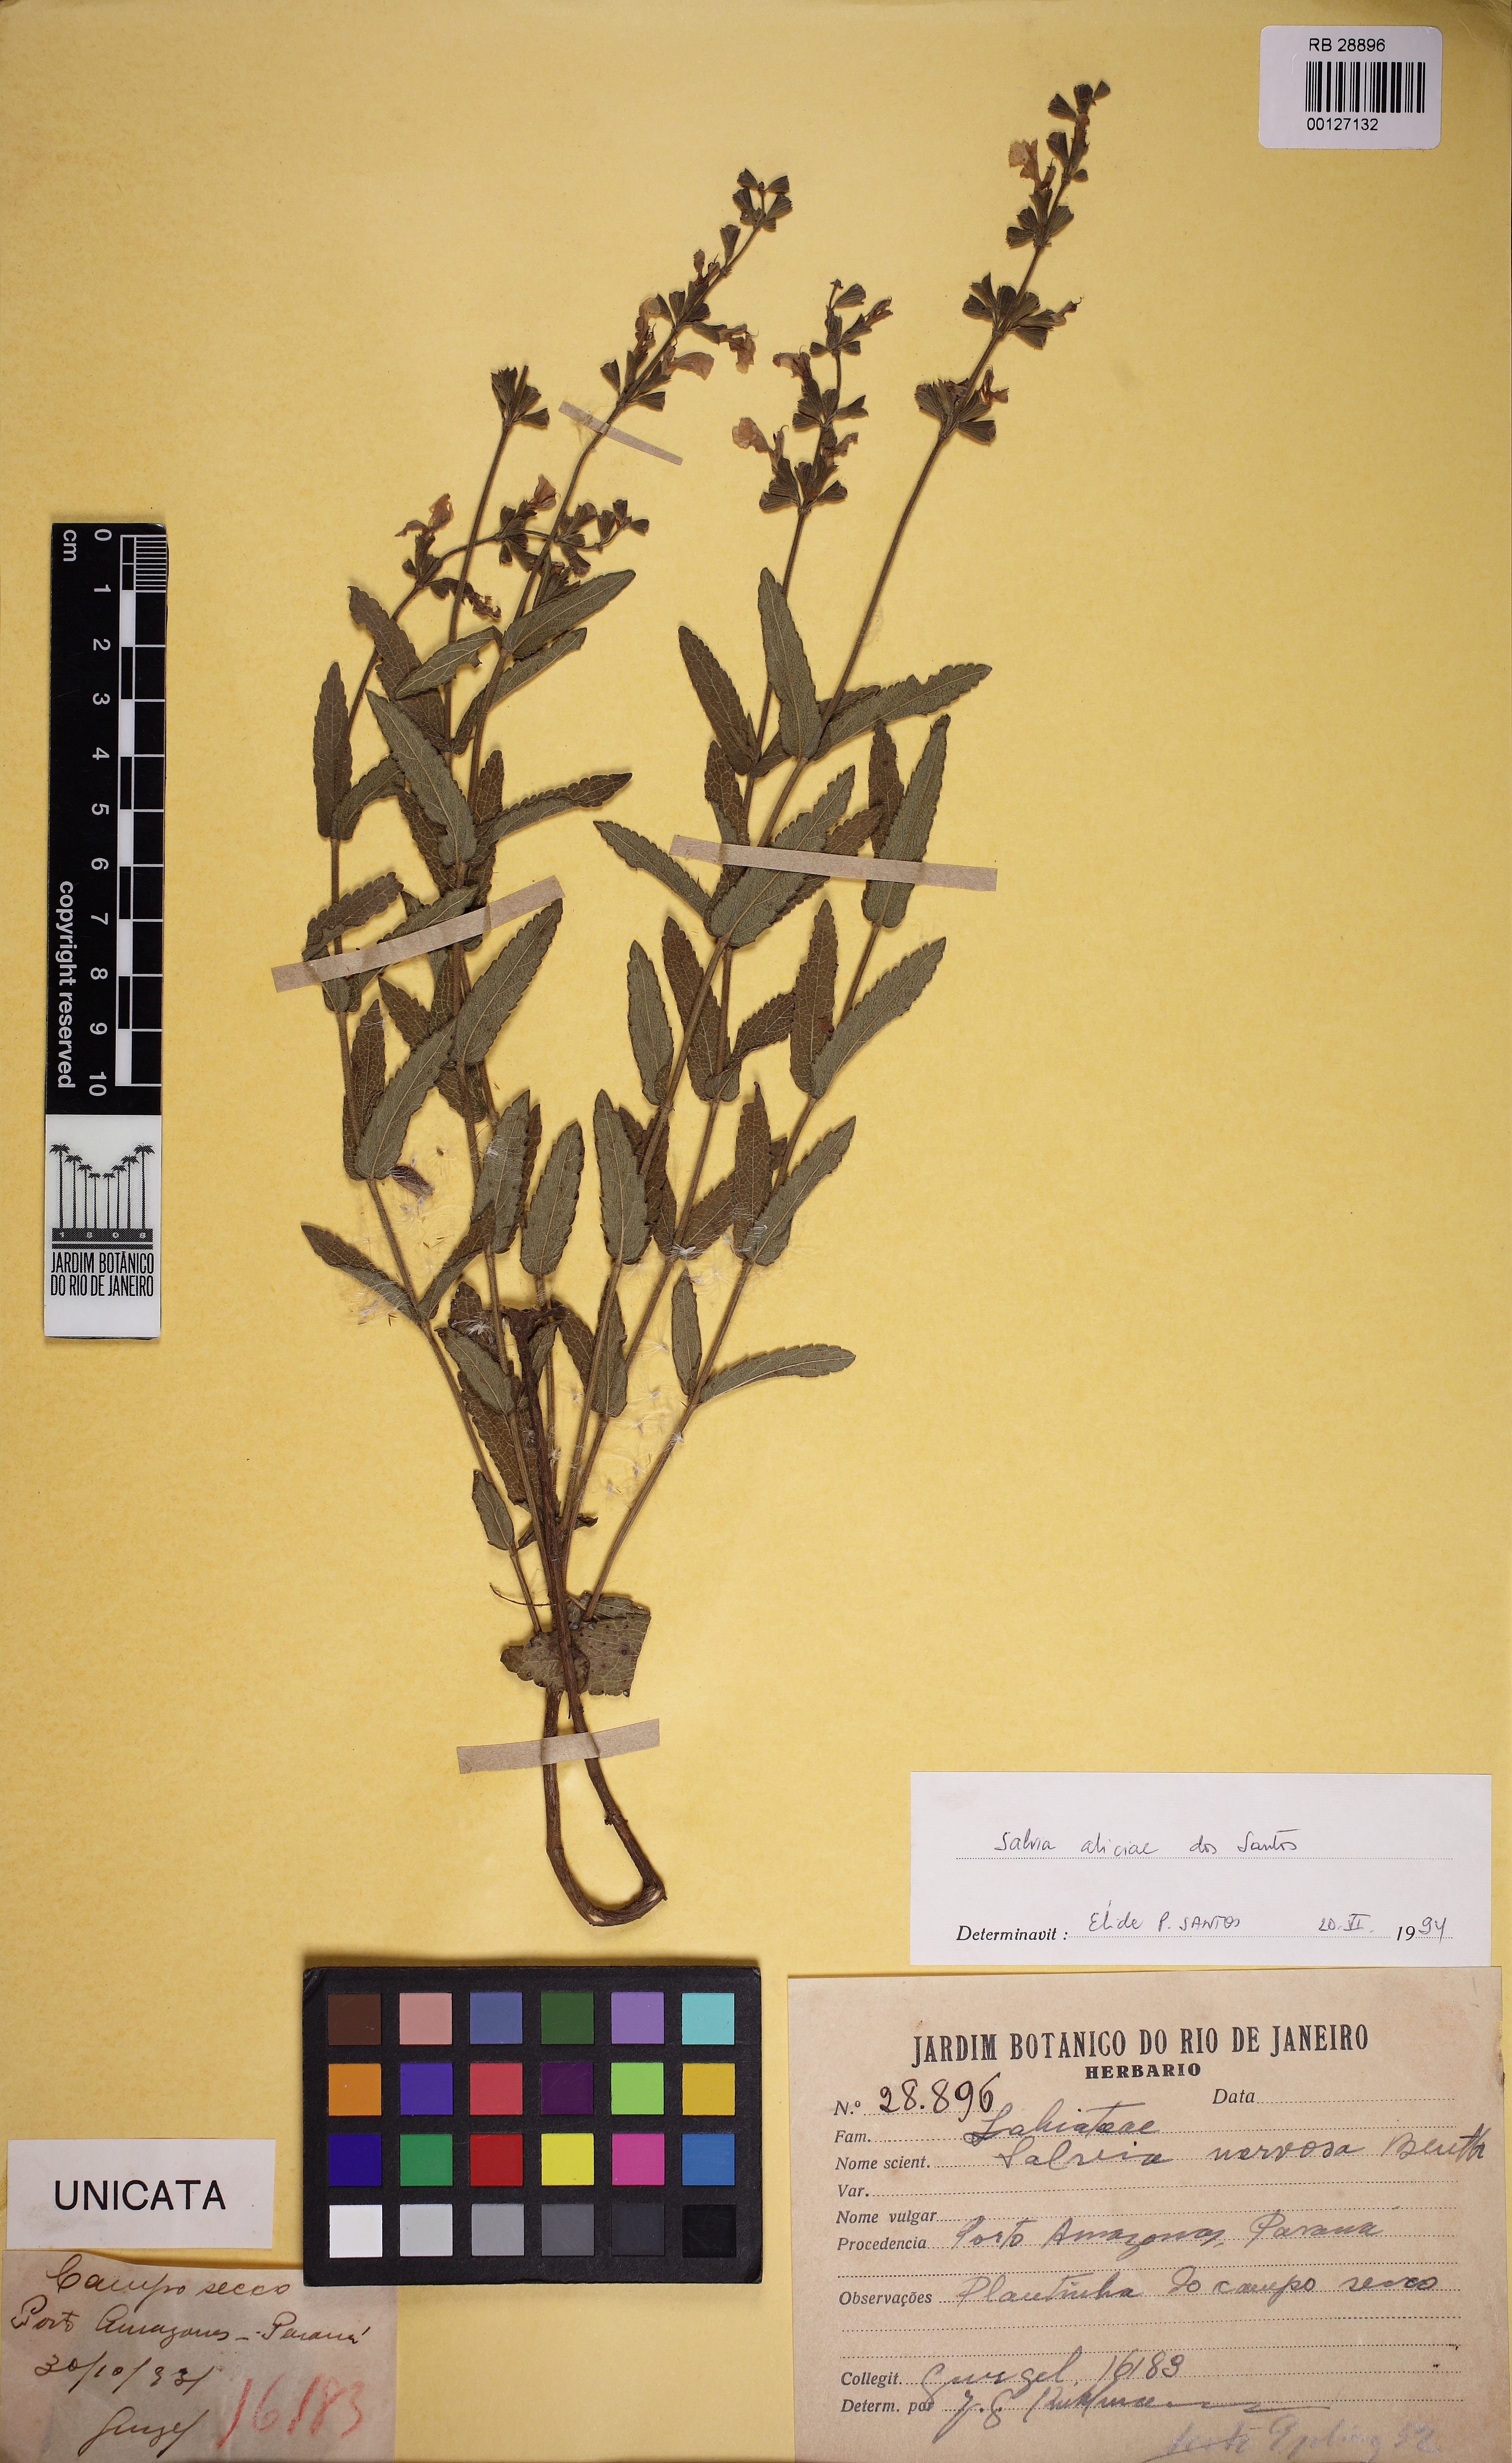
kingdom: Plantae
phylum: Tracheophyta
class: Magnoliopsida
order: Lamiales
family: Lamiaceae
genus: Salvia
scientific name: Salvia aliciae
